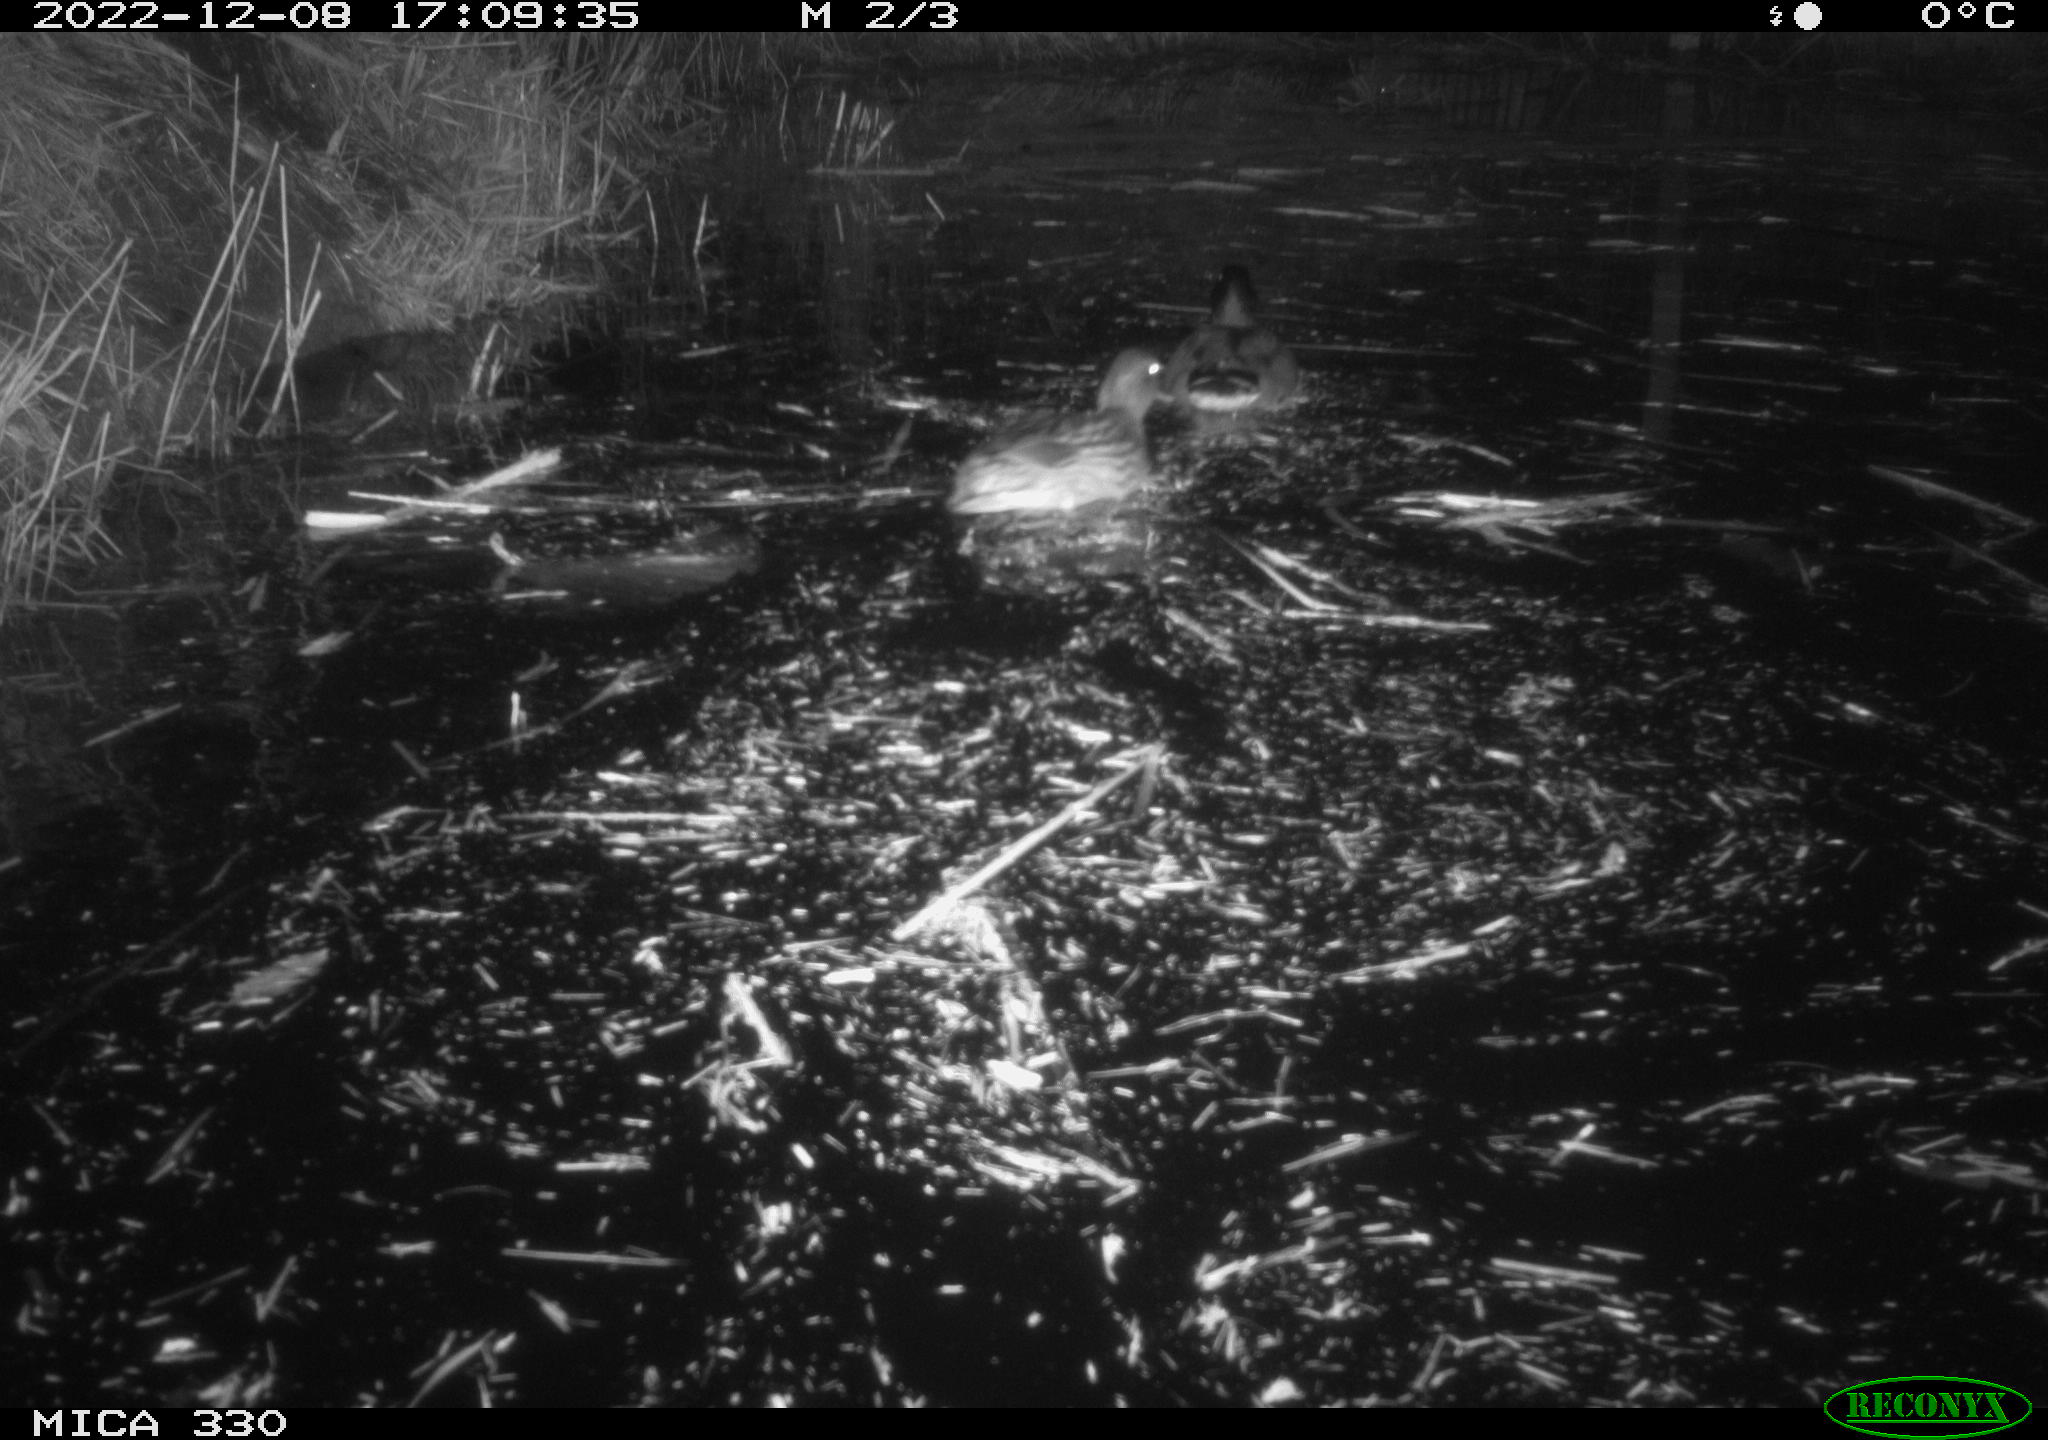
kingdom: Animalia
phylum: Chordata
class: Aves
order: Anseriformes
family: Anatidae
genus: Anas
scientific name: Anas platyrhynchos
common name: Mallard
